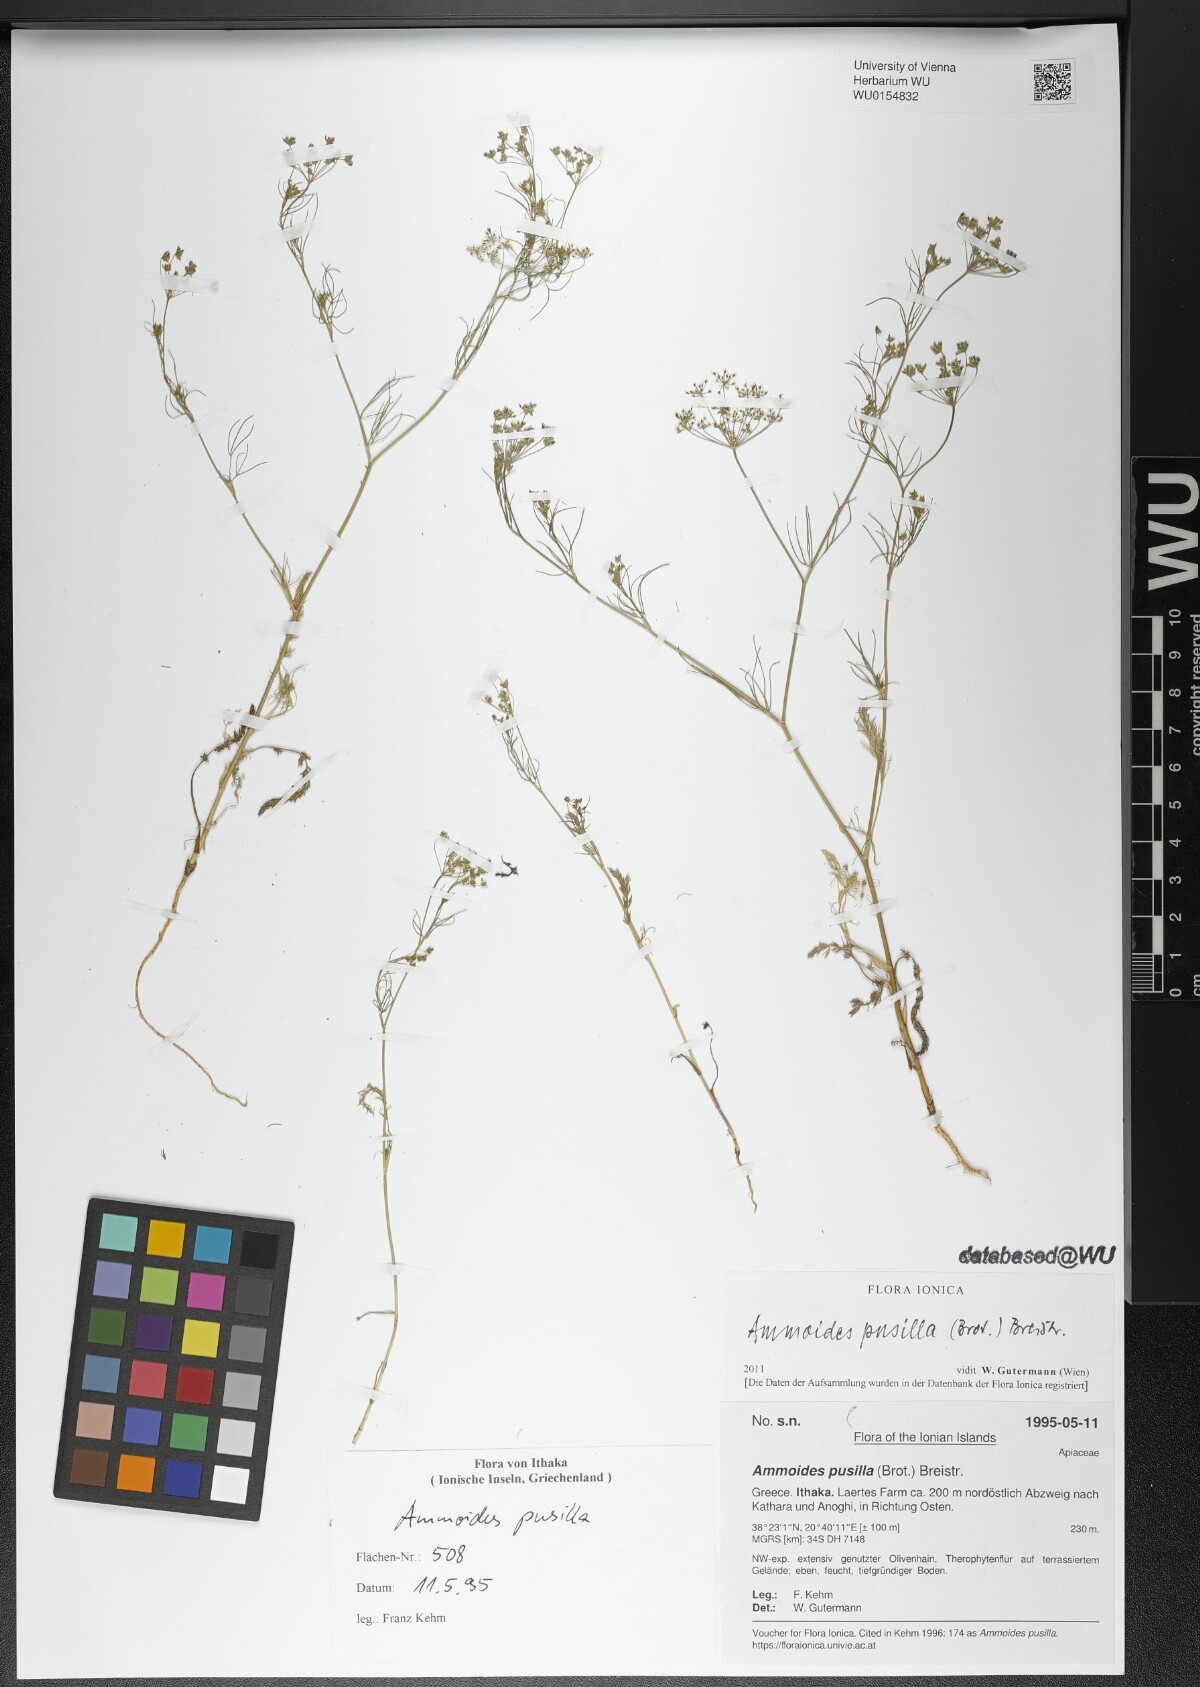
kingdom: Plantae
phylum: Tracheophyta
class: Magnoliopsida
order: Apiales
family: Apiaceae
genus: Ammoides
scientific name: Ammoides pusilla
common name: Cerfolium
